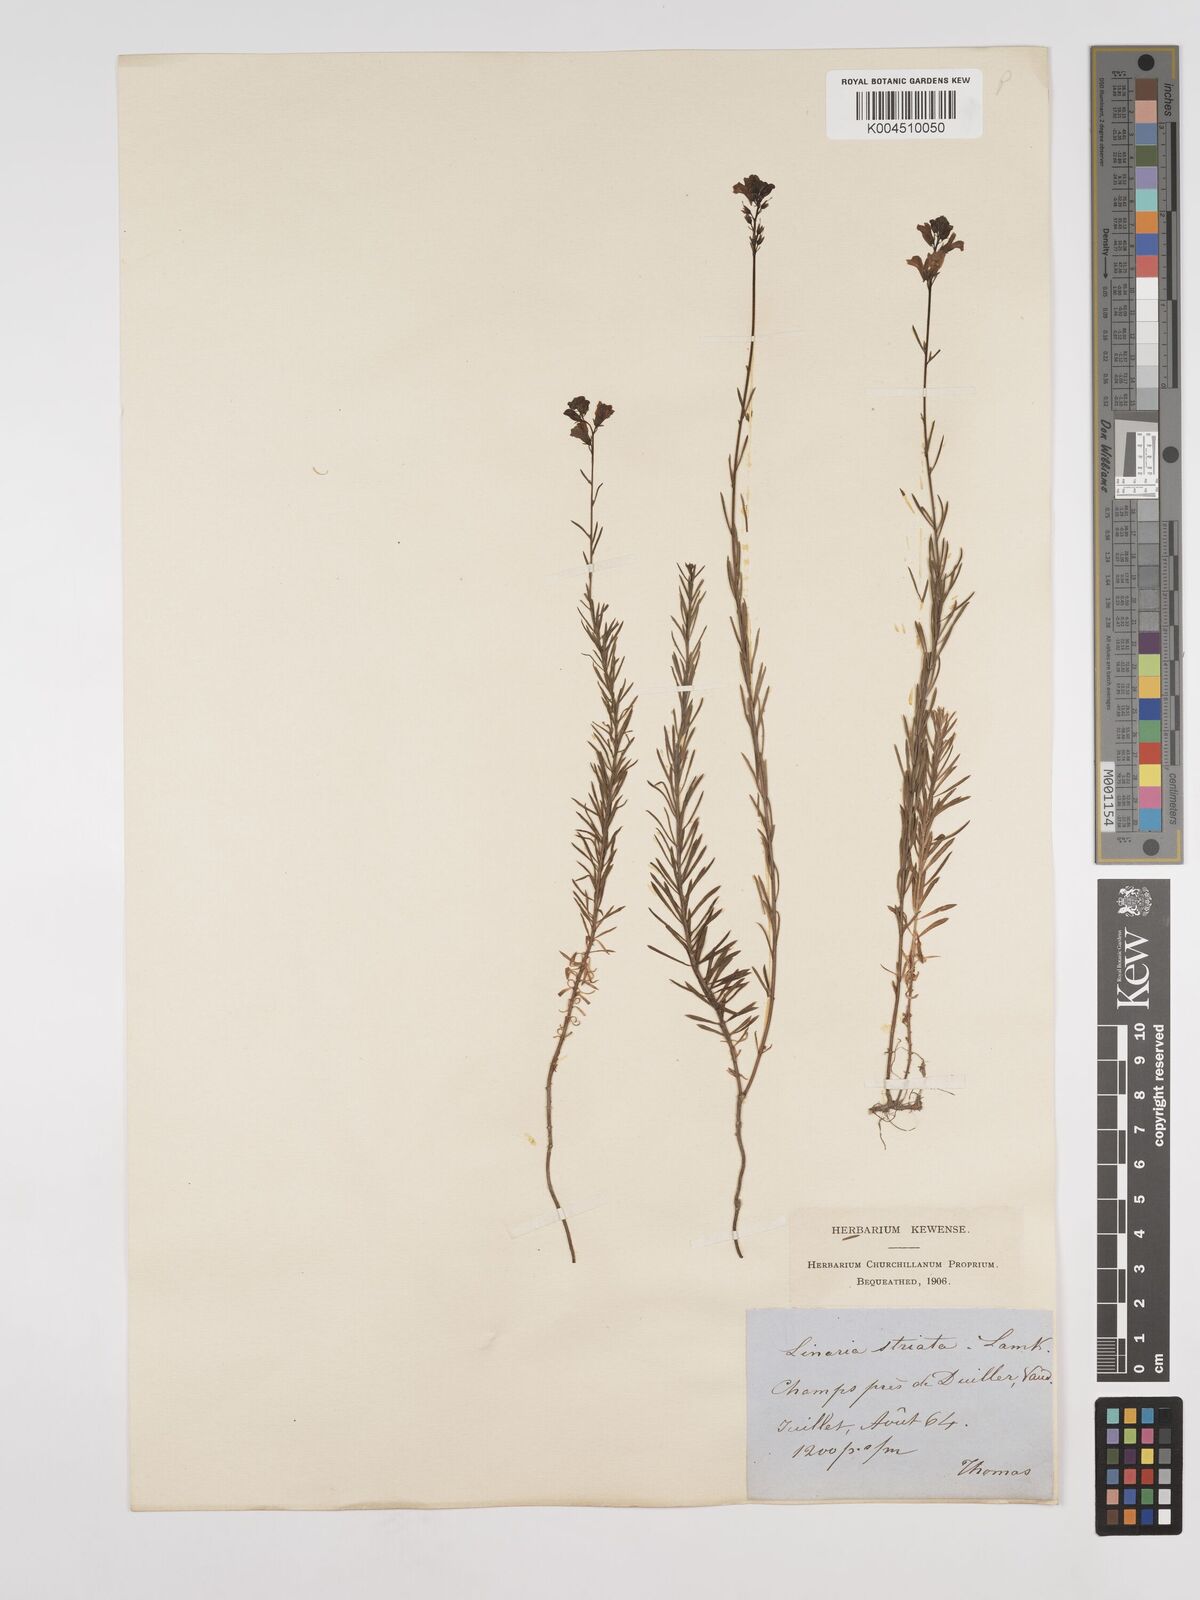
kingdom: Plantae
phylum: Tracheophyta
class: Magnoliopsida
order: Lamiales
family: Plantaginaceae
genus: Linaria
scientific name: Linaria repens
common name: Pale toadflax
